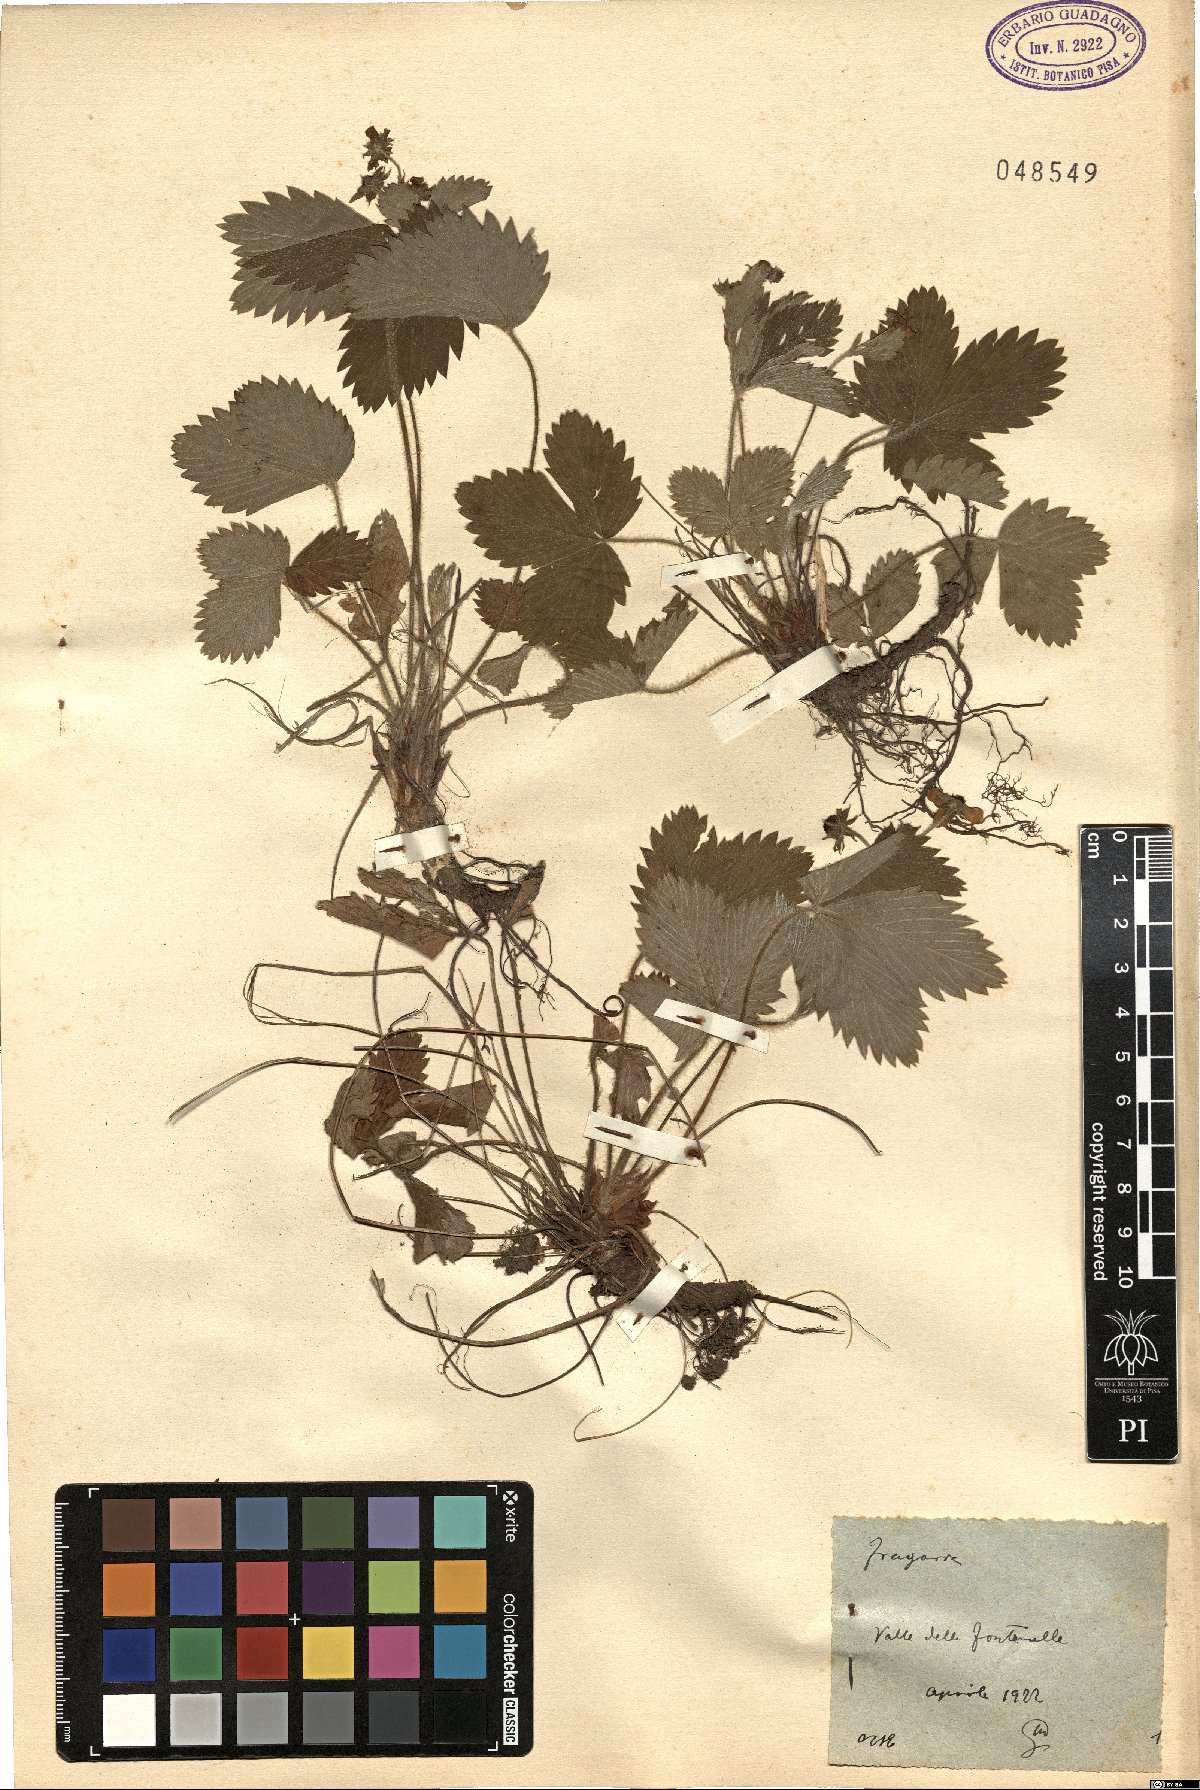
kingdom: Plantae
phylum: Tracheophyta
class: Magnoliopsida
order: Rosales
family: Rosaceae
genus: Fragaria
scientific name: Fragaria
